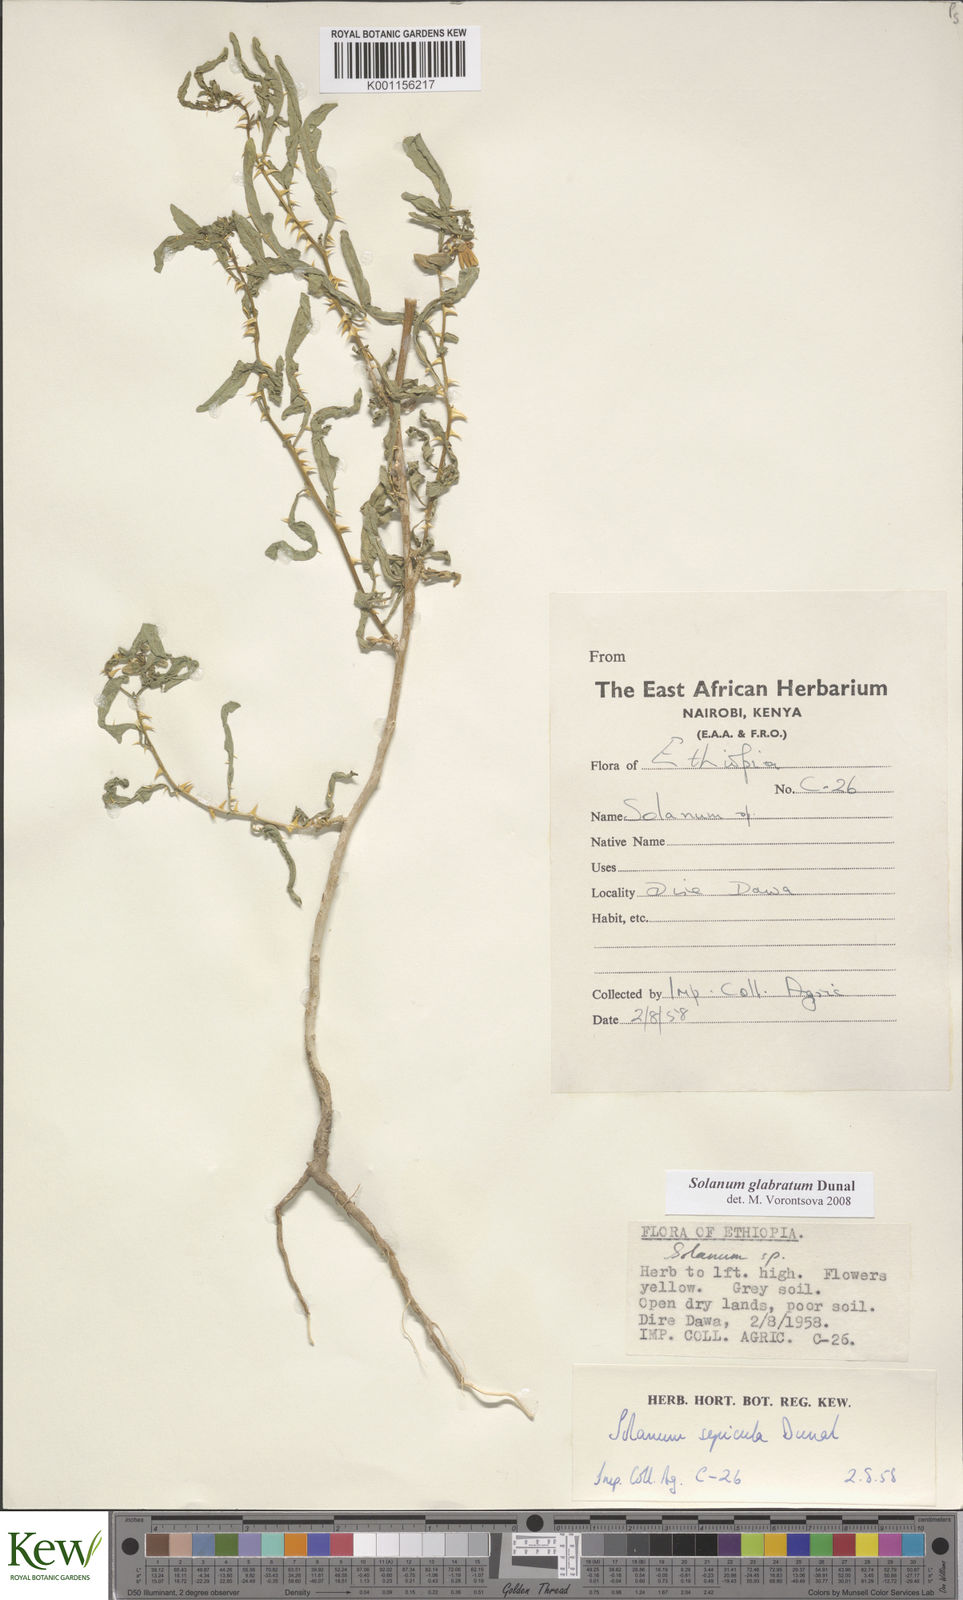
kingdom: Plantae
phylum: Tracheophyta
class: Magnoliopsida
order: Solanales
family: Solanaceae
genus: Solanum
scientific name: Solanum glabratum
